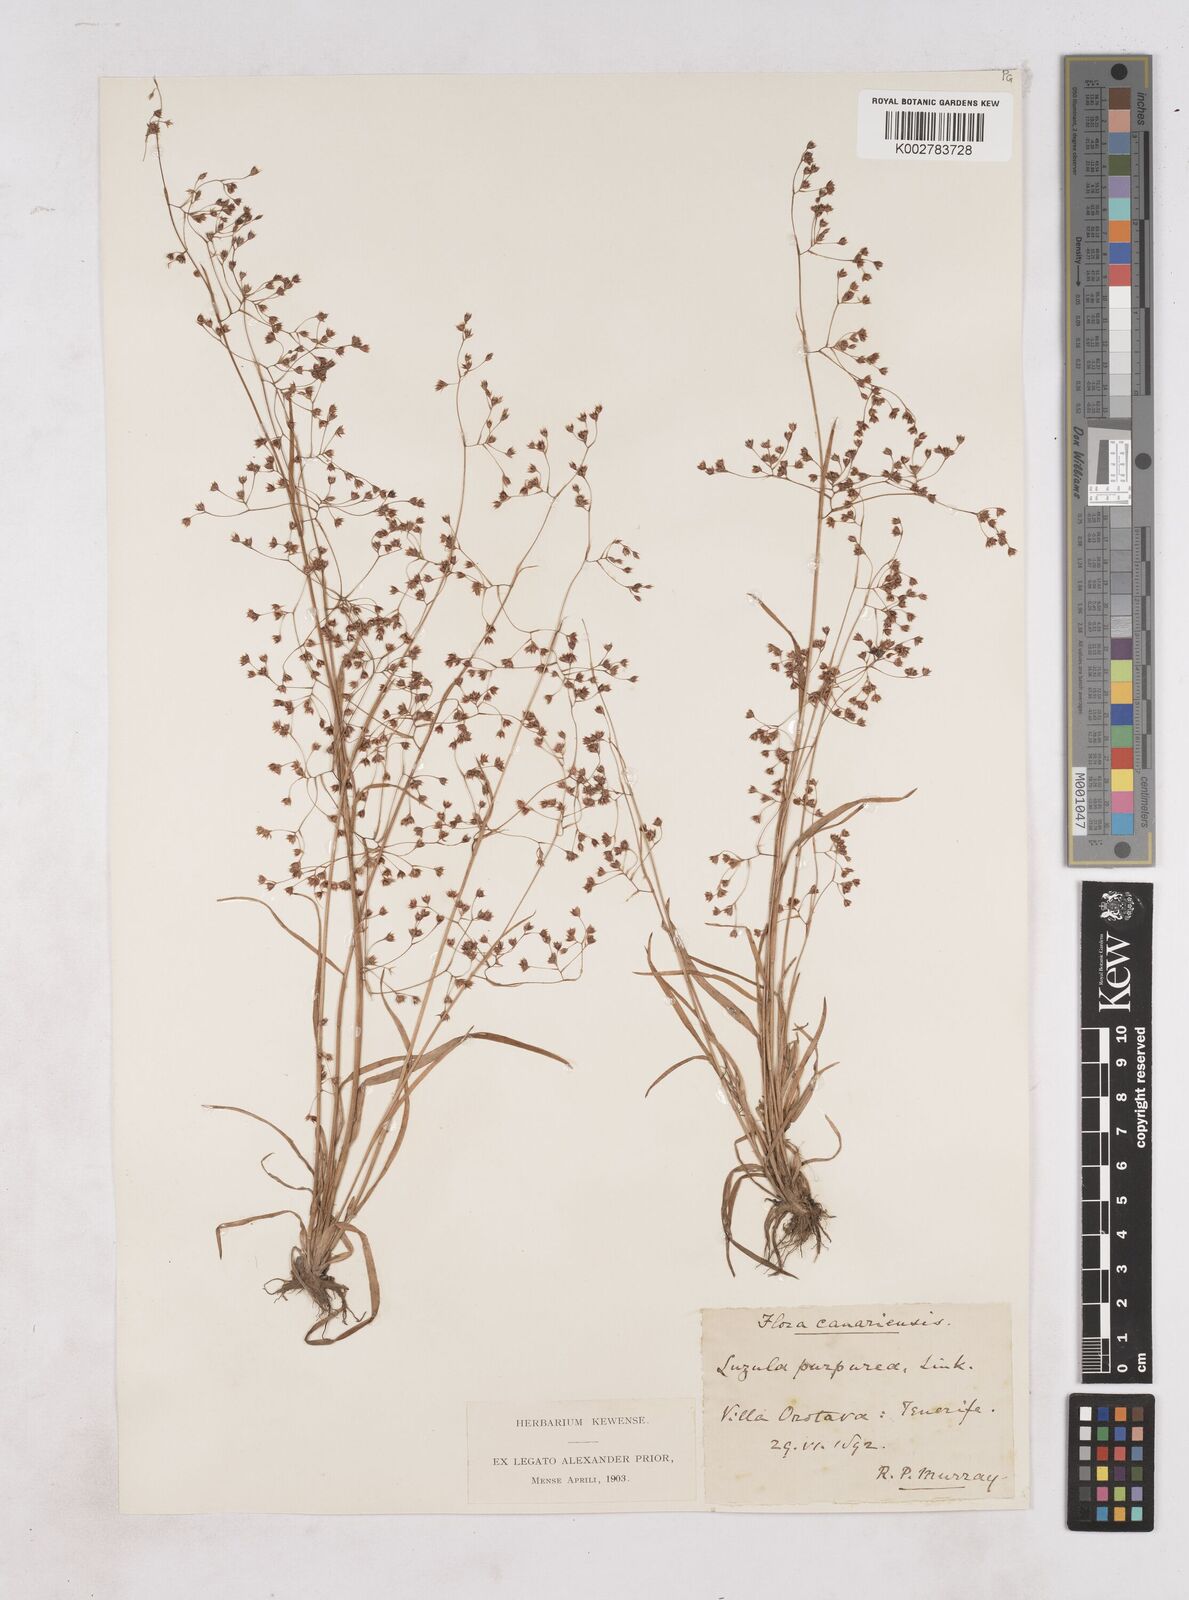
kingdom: Plantae
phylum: Tracheophyta
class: Liliopsida
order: Poales
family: Juncaceae
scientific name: Juncaceae
